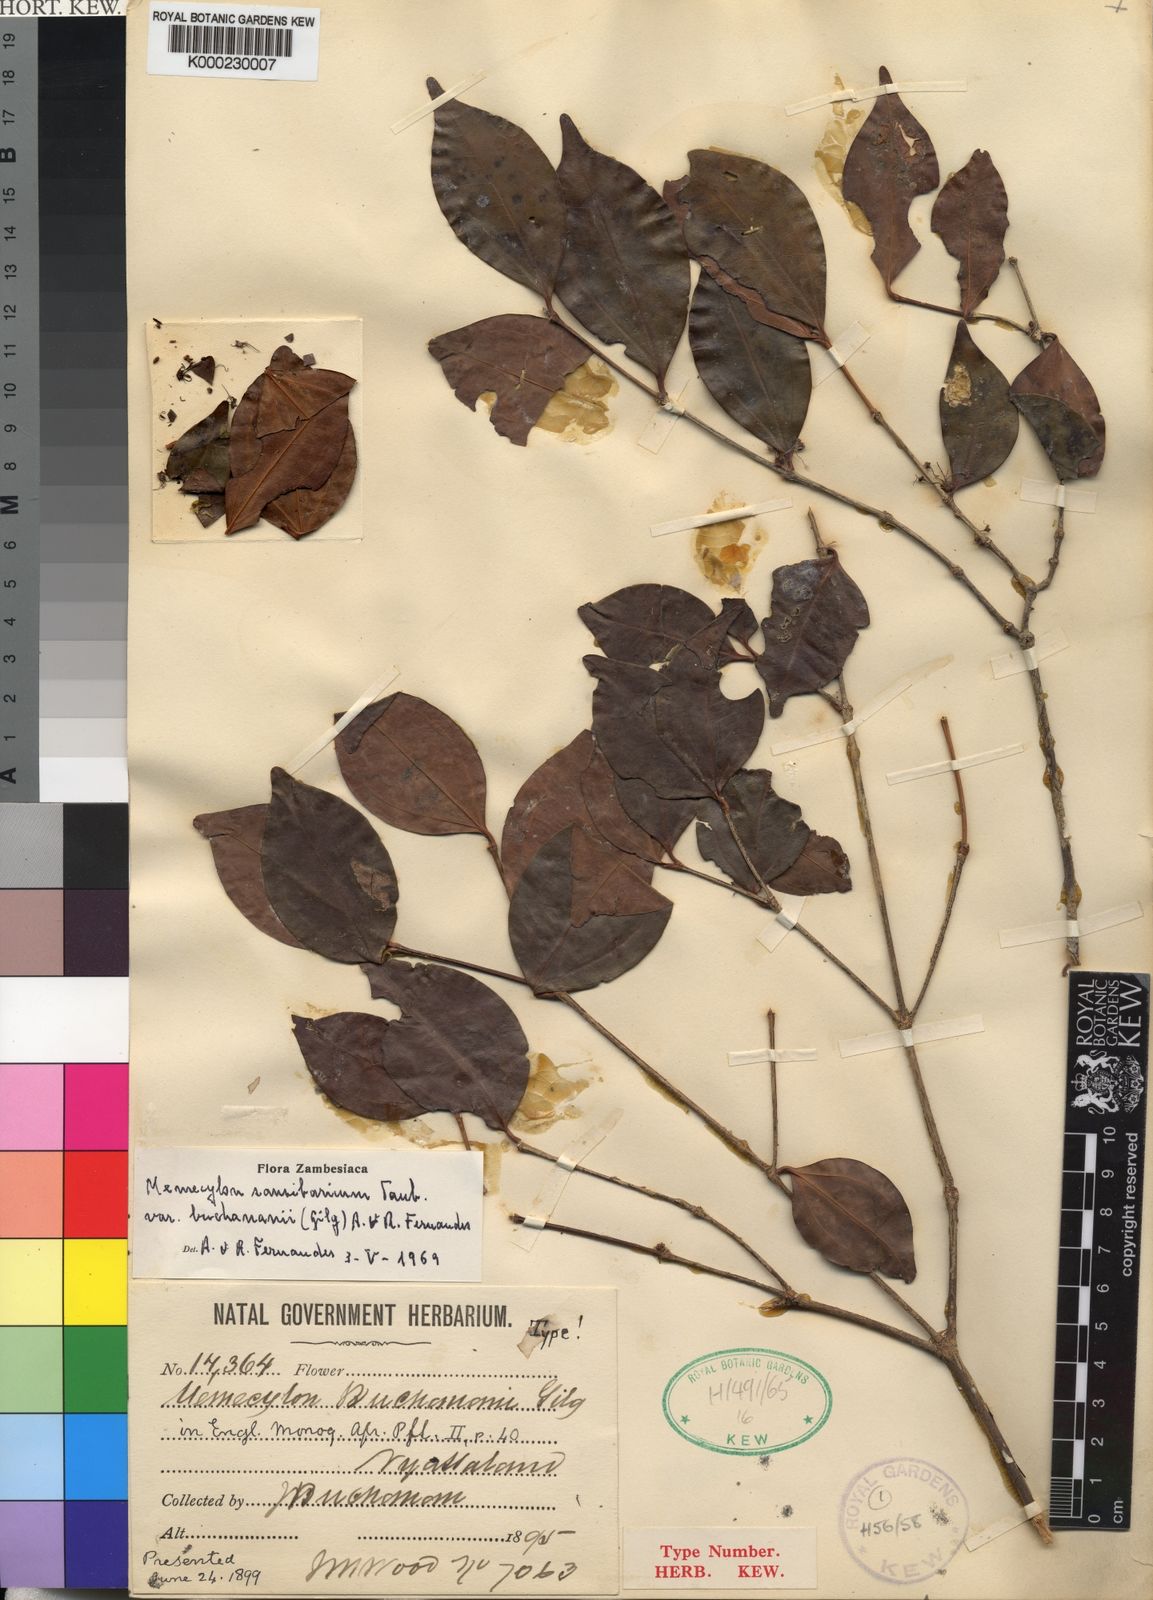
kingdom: Plantae
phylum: Tracheophyta
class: Magnoliopsida
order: Myrtales
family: Melastomataceae
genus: Warneckea
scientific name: Warneckea
